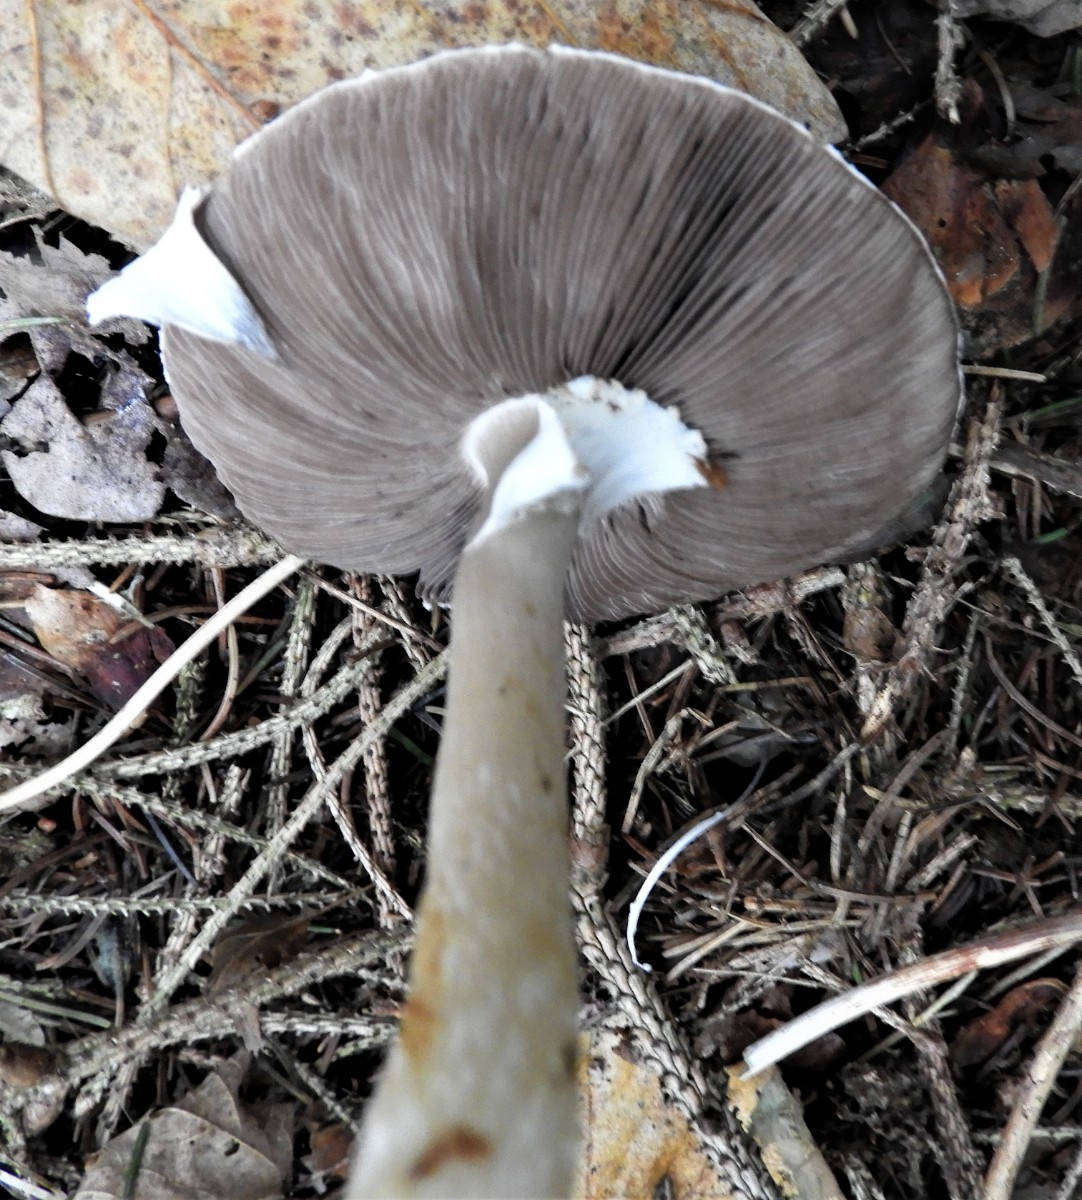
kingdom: Fungi
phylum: Basidiomycota
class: Agaricomycetes
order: Agaricales
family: Agaricaceae
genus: Agaricus
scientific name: Agaricus impudicus
